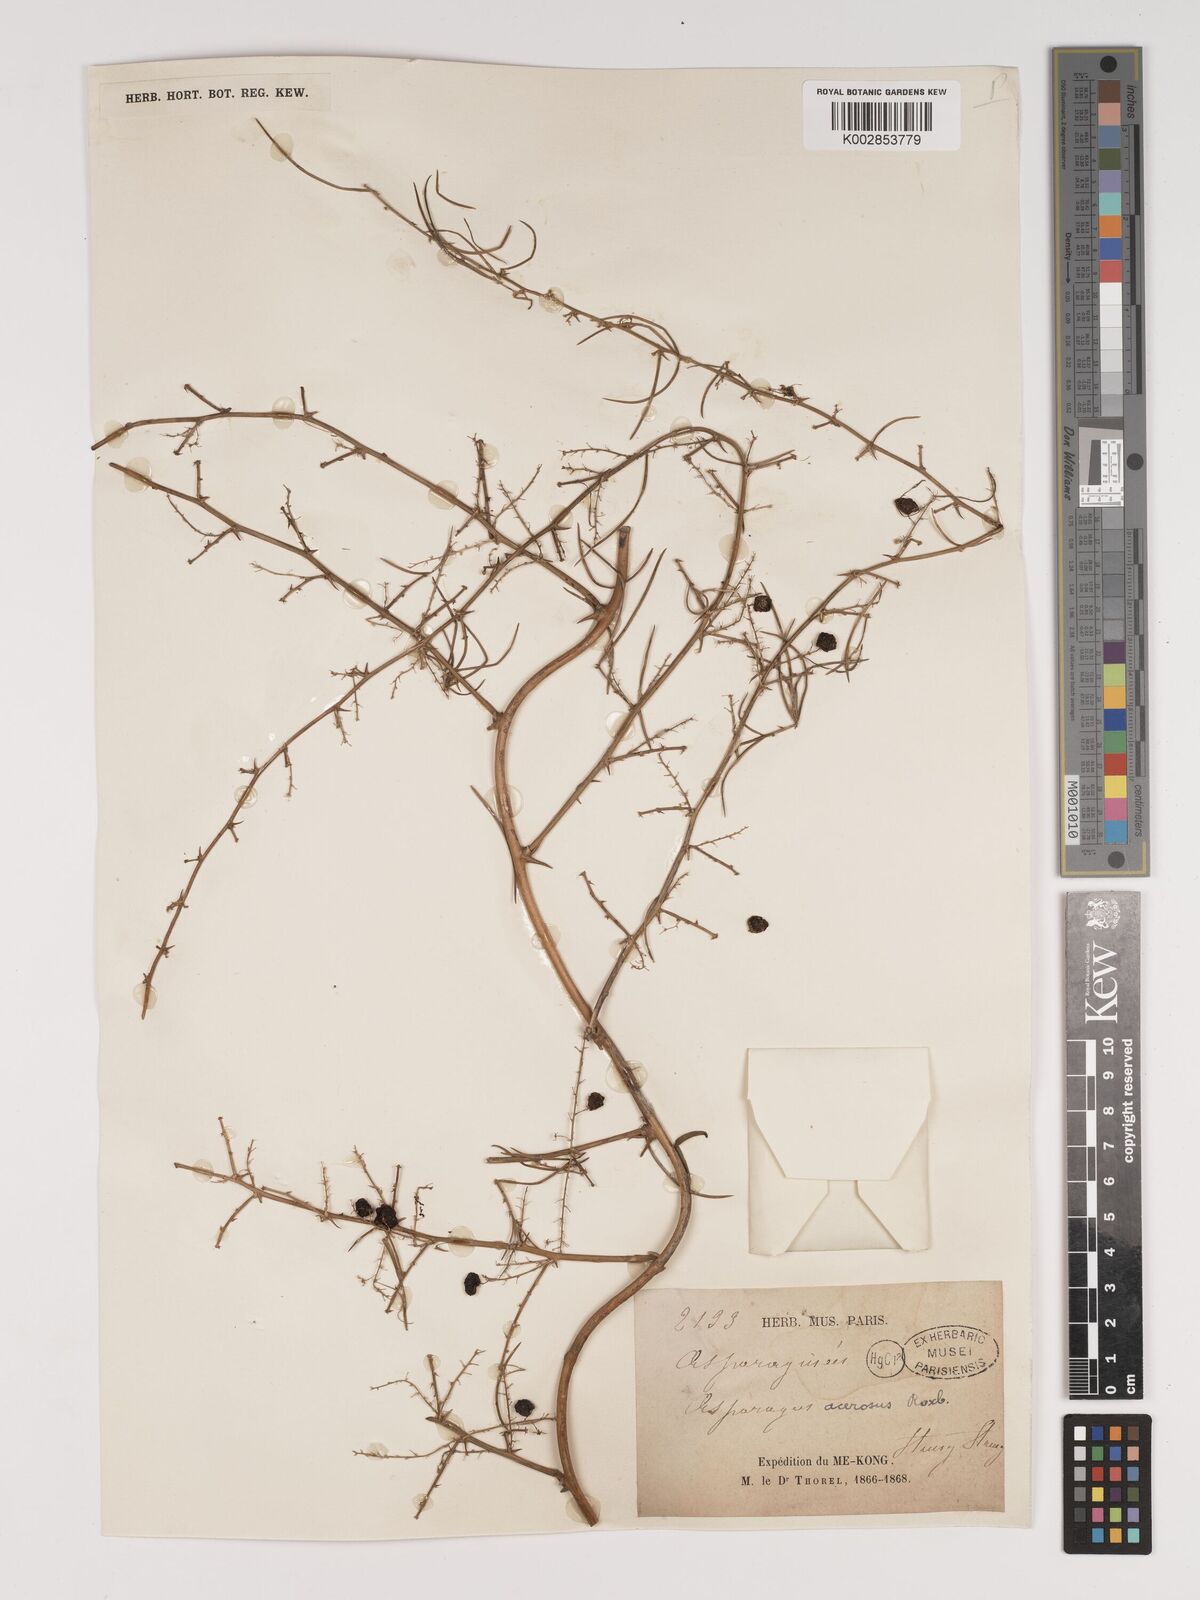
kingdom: Plantae
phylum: Tracheophyta
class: Liliopsida
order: Asparagales
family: Asparagaceae
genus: Asparagus
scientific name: Asparagus racemosus
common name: Asparagus-fern
